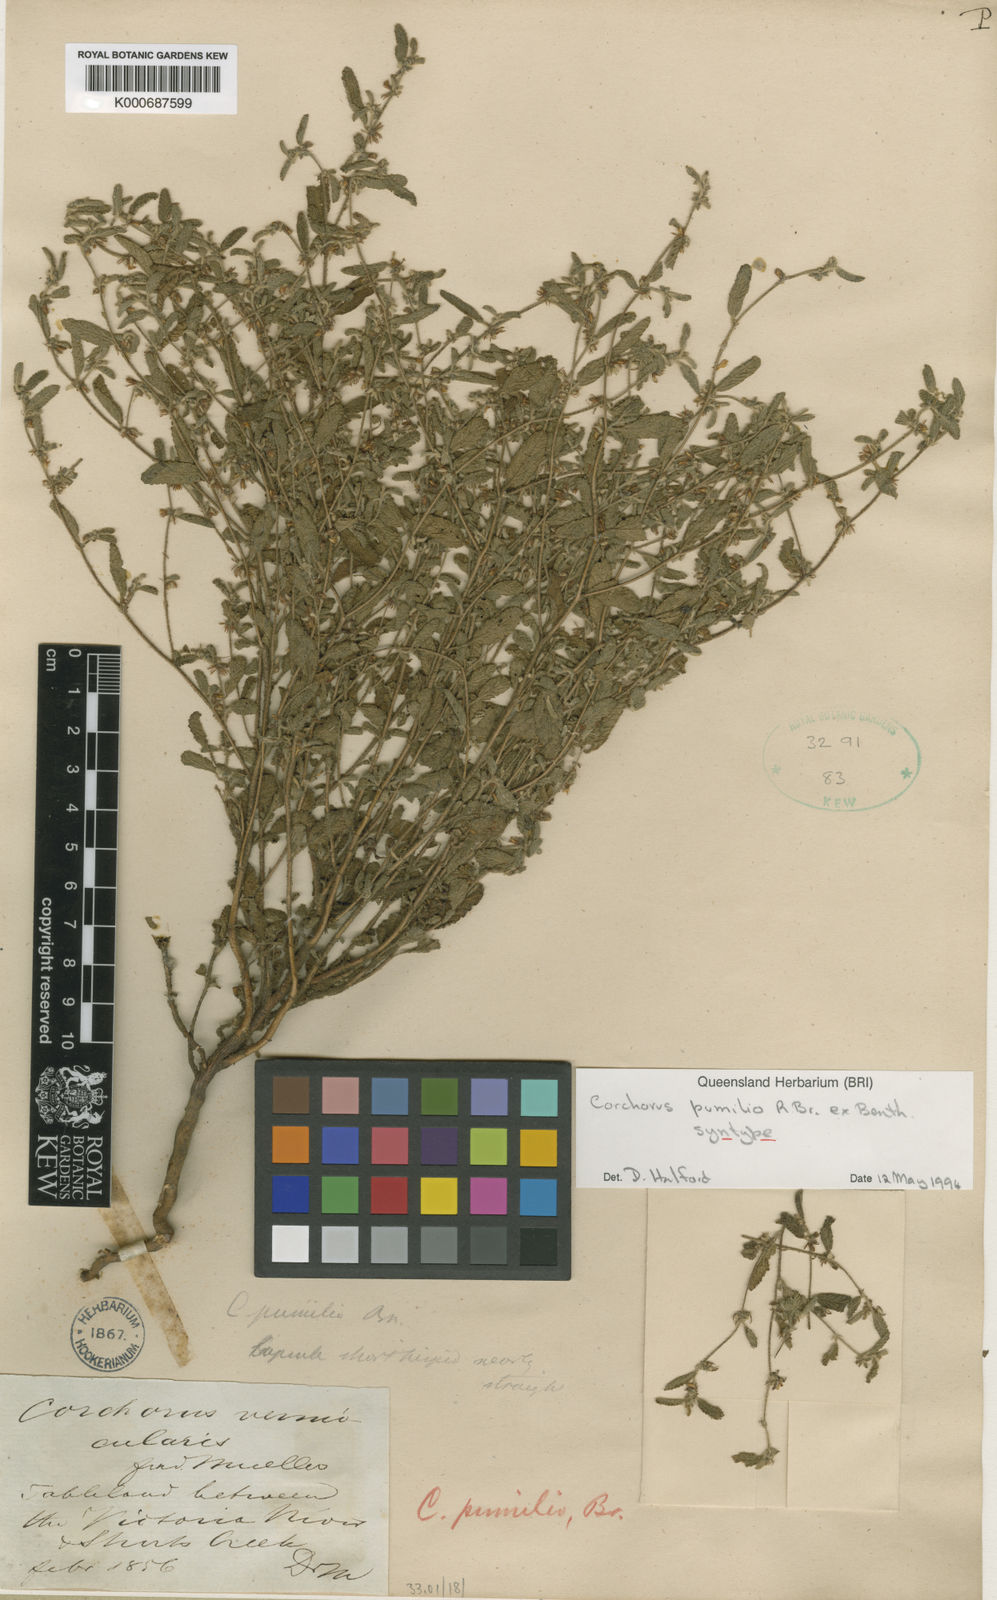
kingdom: Plantae
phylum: Tracheophyta
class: Magnoliopsida
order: Malvales
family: Malvaceae
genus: Corchorus
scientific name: Corchorus pumilio
